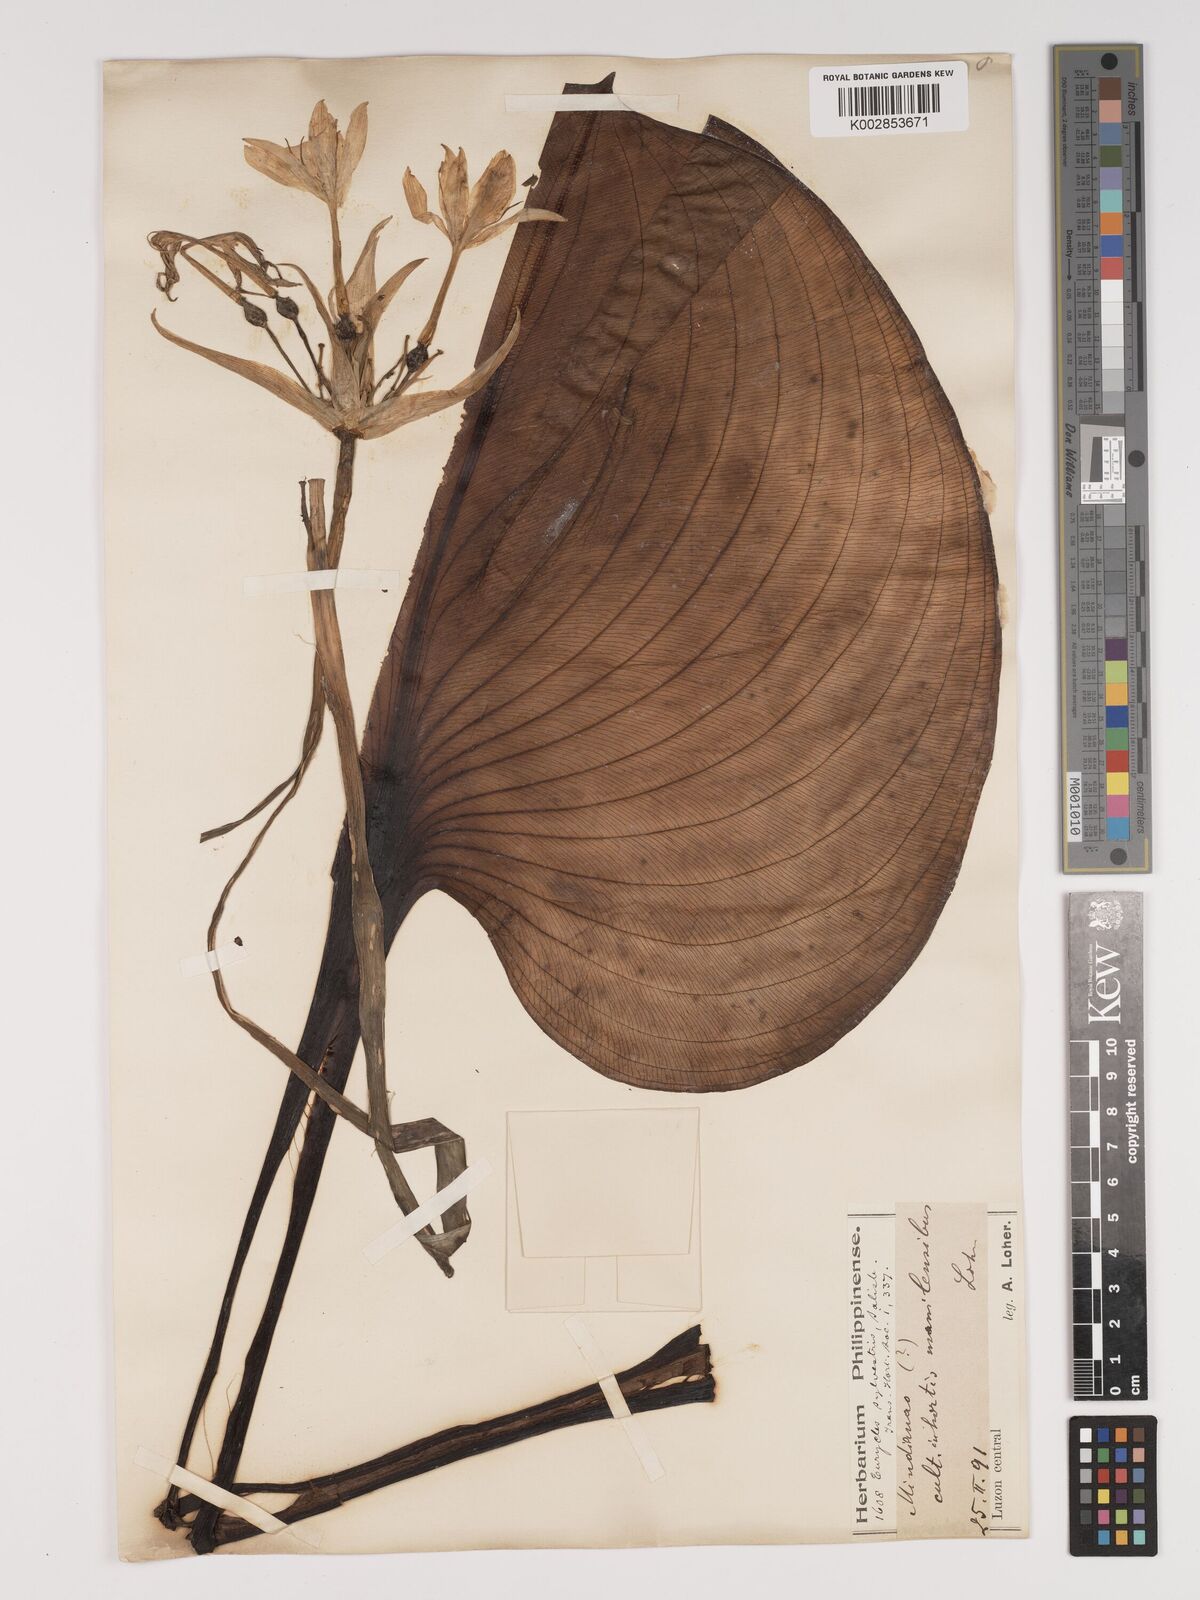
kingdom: Plantae
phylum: Tracheophyta
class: Liliopsida
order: Asparagales
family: Amaryllidaceae
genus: Proiphys
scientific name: Proiphys amboinensis
